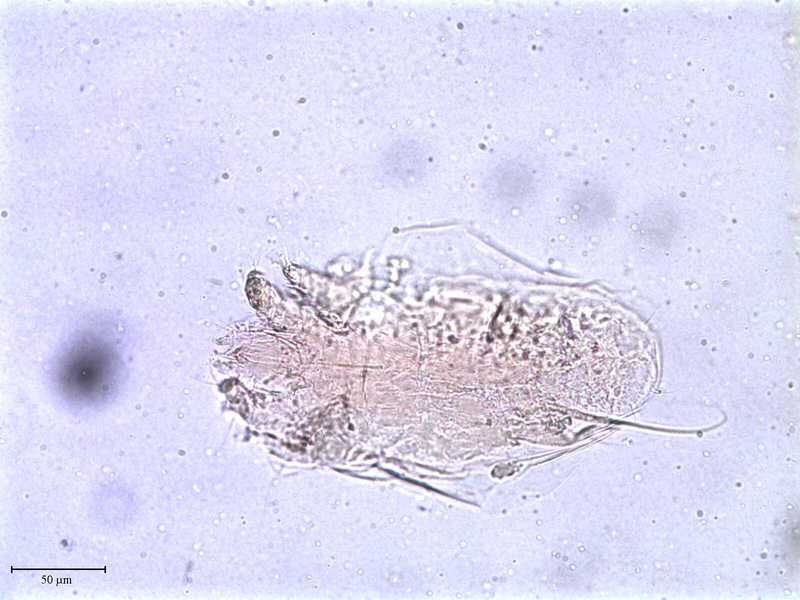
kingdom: Animalia
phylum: Arthropoda
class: Arachnida
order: Trombidiformes
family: Tarsonemidae
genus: Pseudotarsonemoides
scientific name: Pseudotarsonemoides eccoptogasteris
